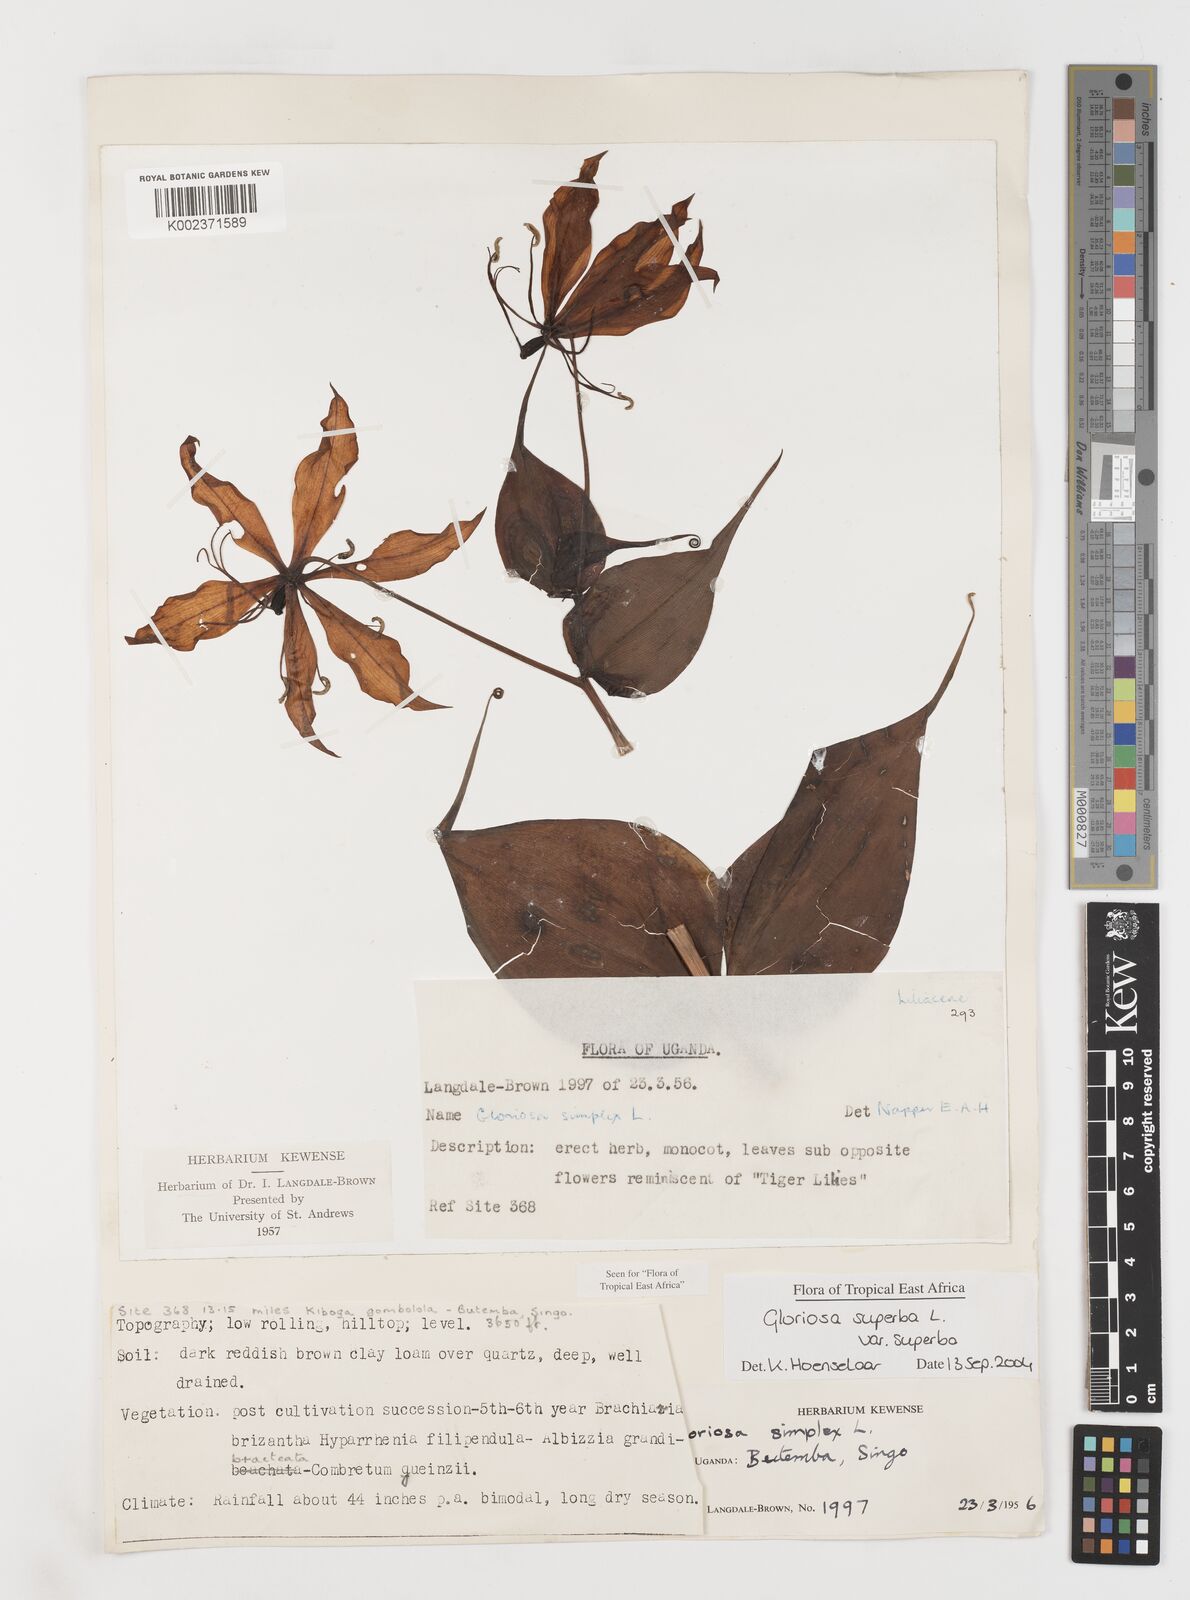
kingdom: Plantae
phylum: Tracheophyta
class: Liliopsida
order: Liliales
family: Colchicaceae
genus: Gloriosa
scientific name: Gloriosa simplex
